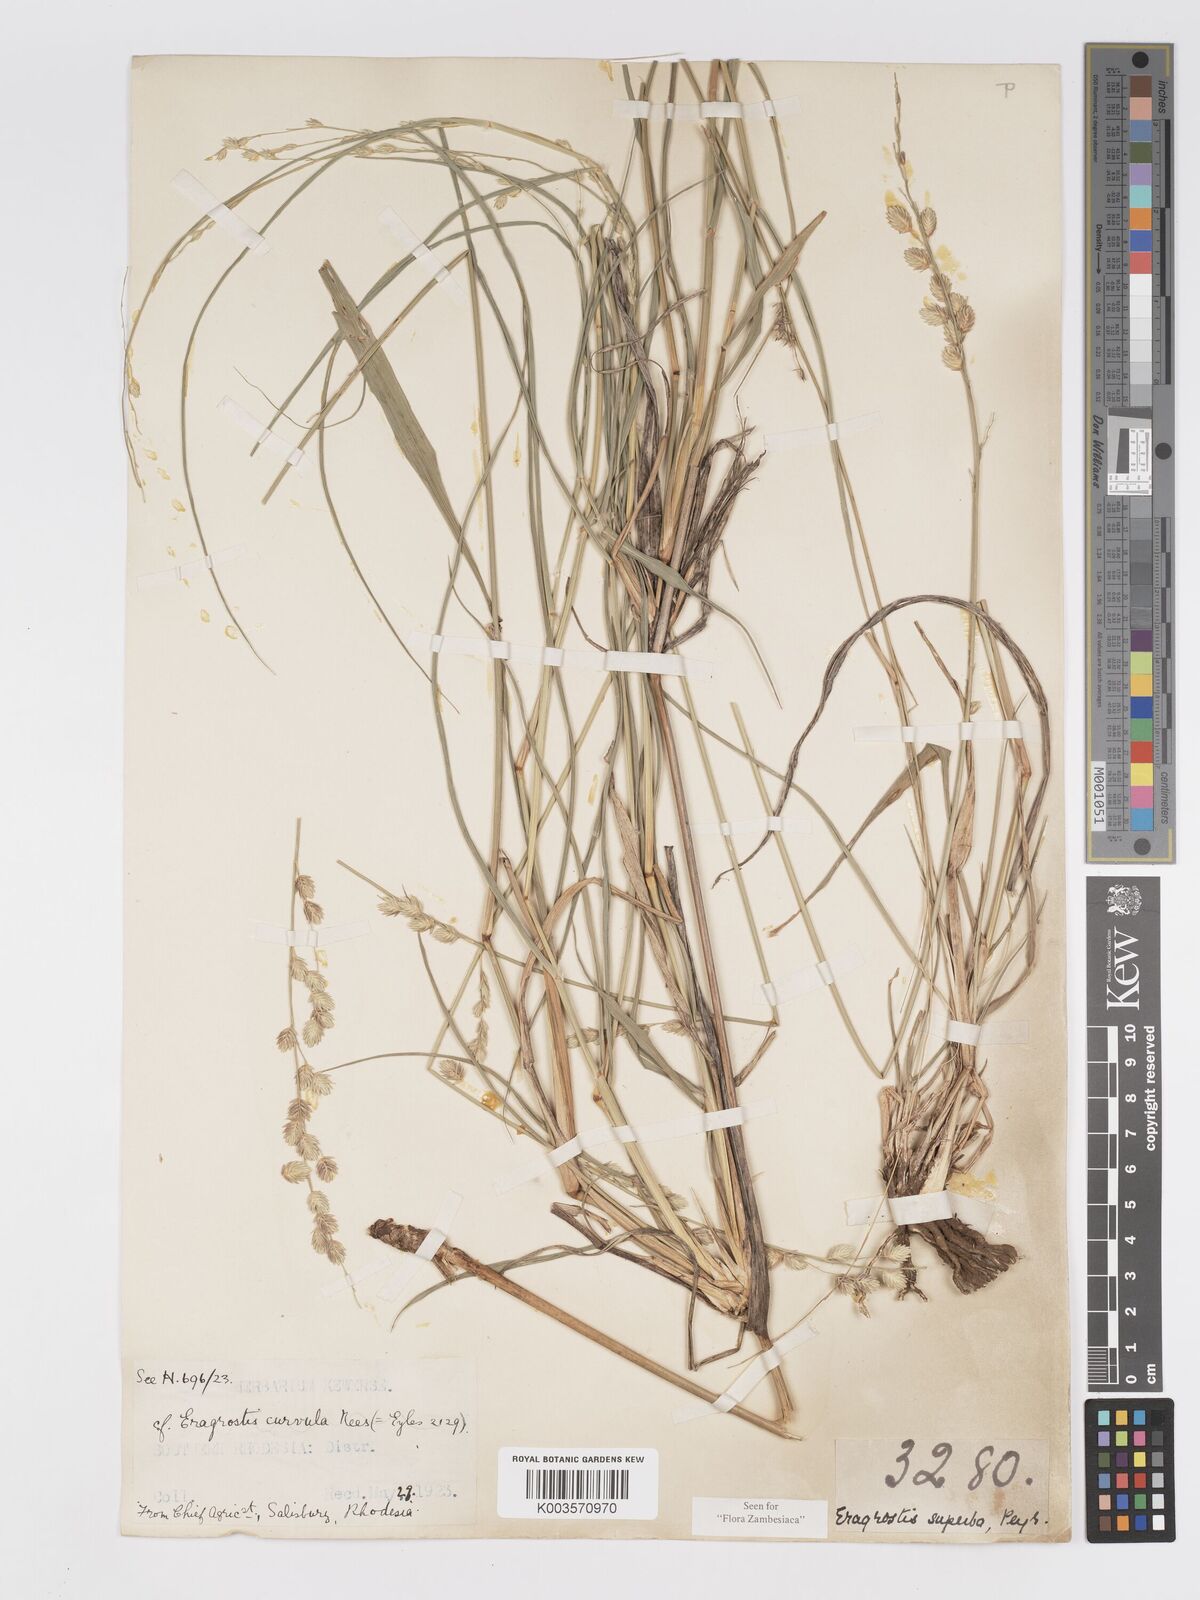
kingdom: Plantae
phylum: Tracheophyta
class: Liliopsida
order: Poales
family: Poaceae
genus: Eragrostis
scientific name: Eragrostis superba
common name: Wilman lovegrass
